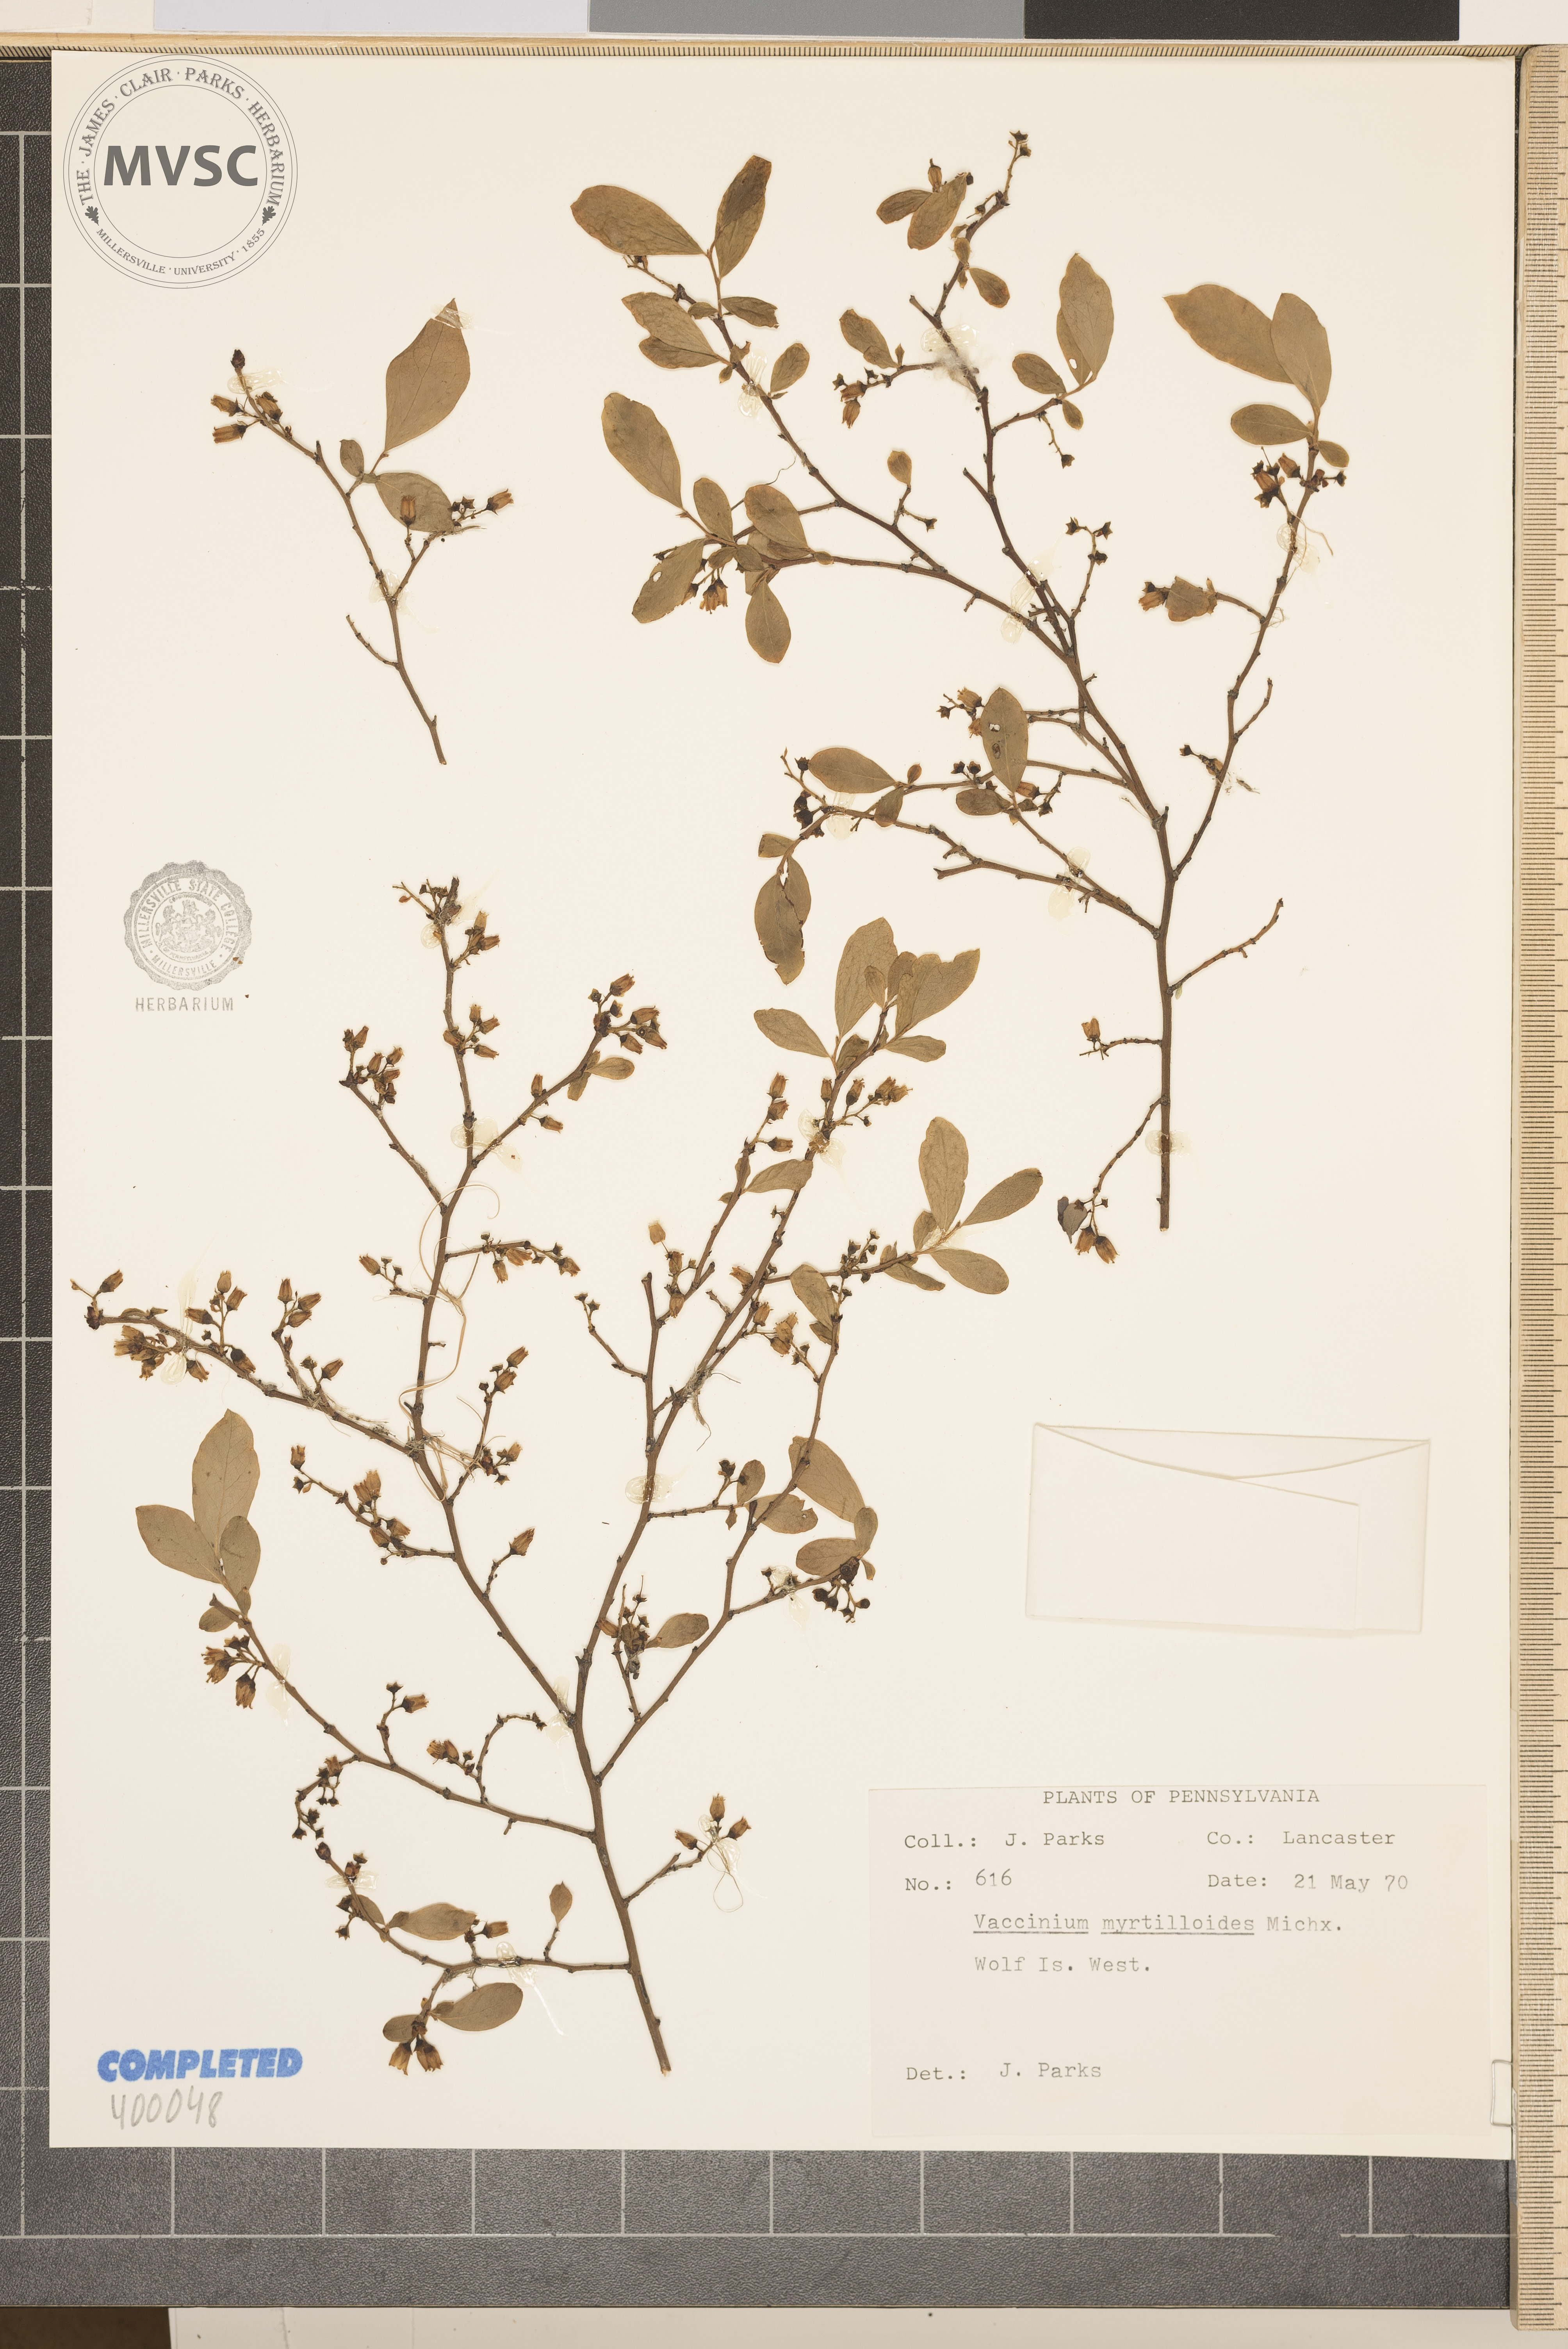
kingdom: Plantae
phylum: Tracheophyta
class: Magnoliopsida
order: Ericales
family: Ericaceae
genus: Vaccinium
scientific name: Vaccinium myrtilloides
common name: blueberry
